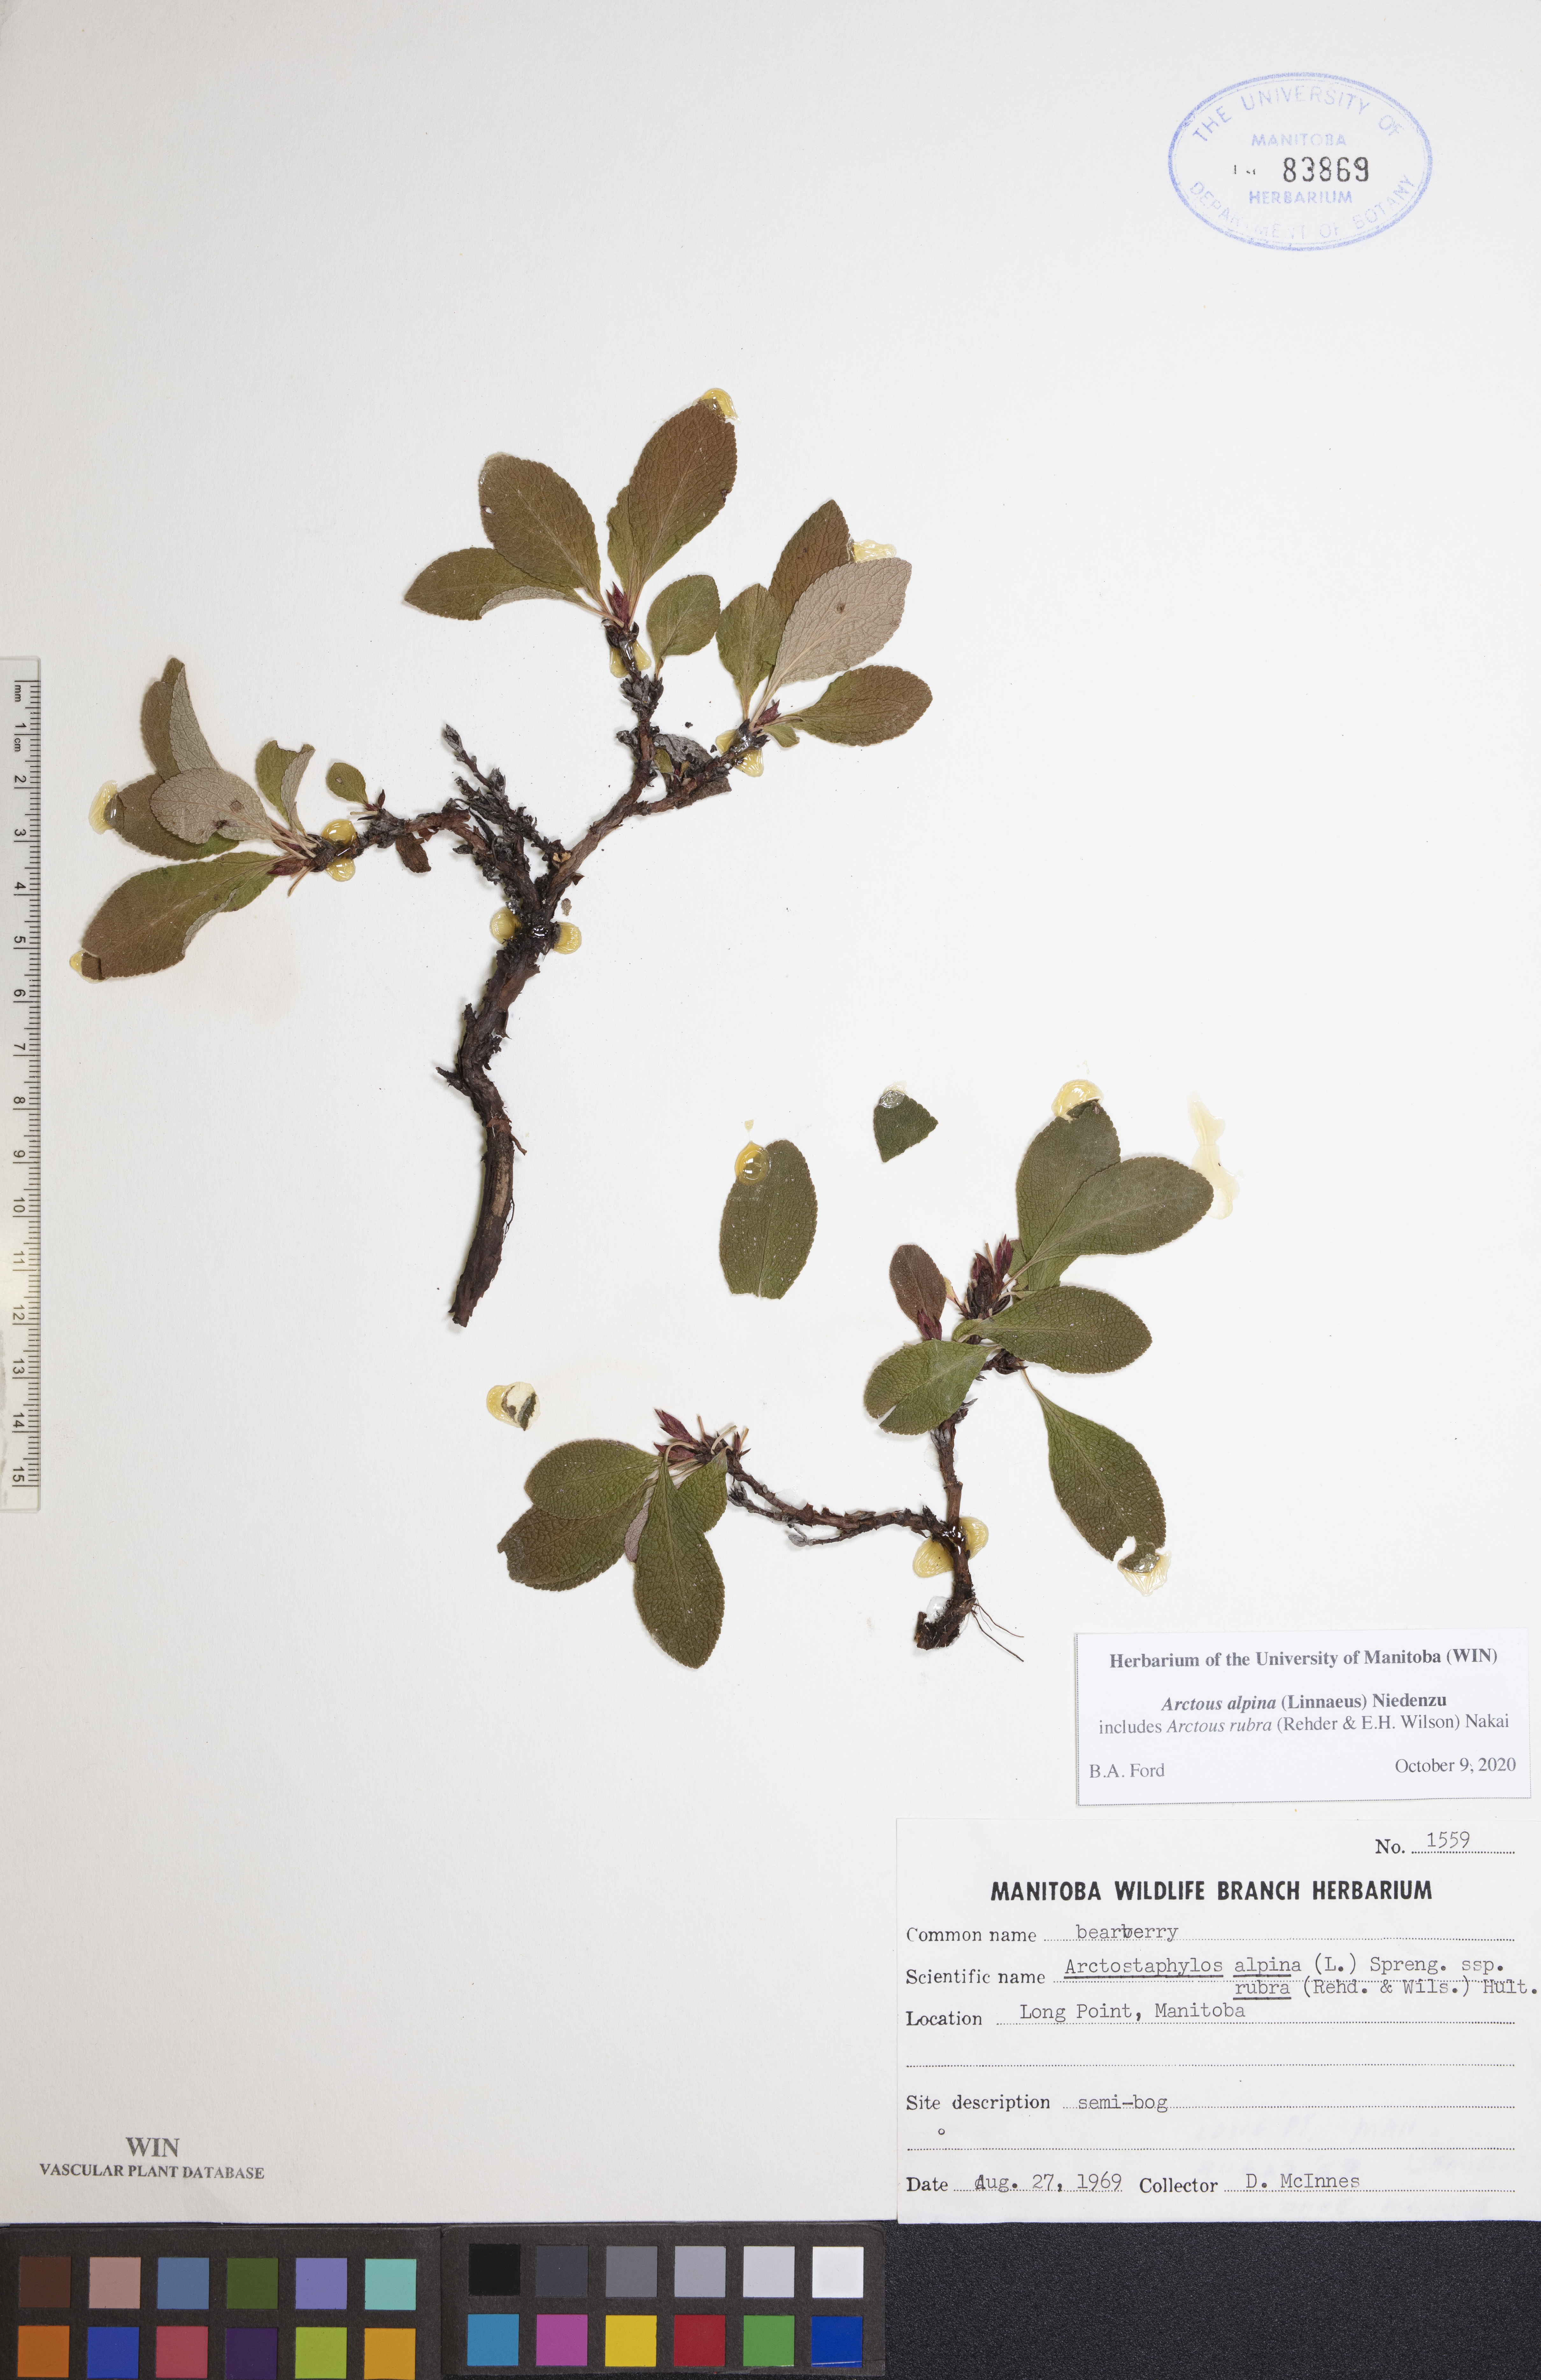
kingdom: Plantae
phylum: Tracheophyta
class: Magnoliopsida
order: Ericales
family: Ericaceae
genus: Arctostaphylos
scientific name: Arctostaphylos alpinus
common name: Alpine bearberry
